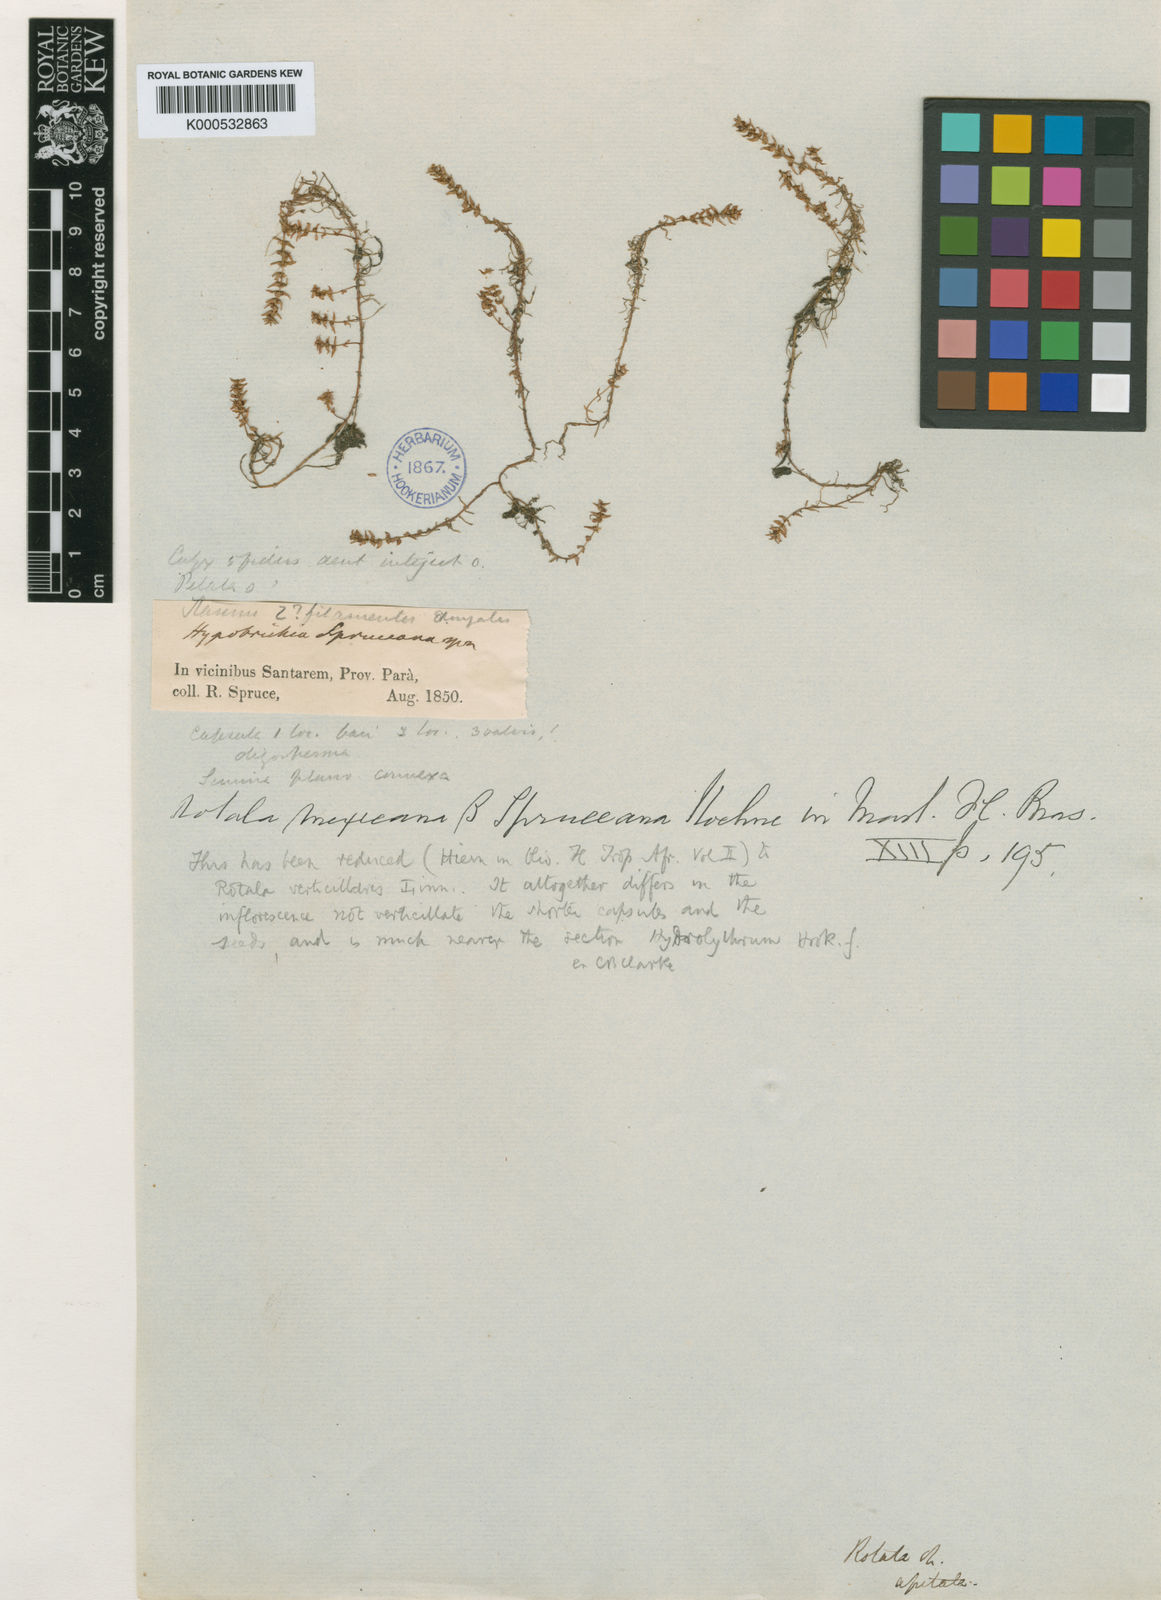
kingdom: Plantae
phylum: Tracheophyta
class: Magnoliopsida
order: Myrtales
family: Lythraceae
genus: Rotala
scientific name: Rotala mexicana
